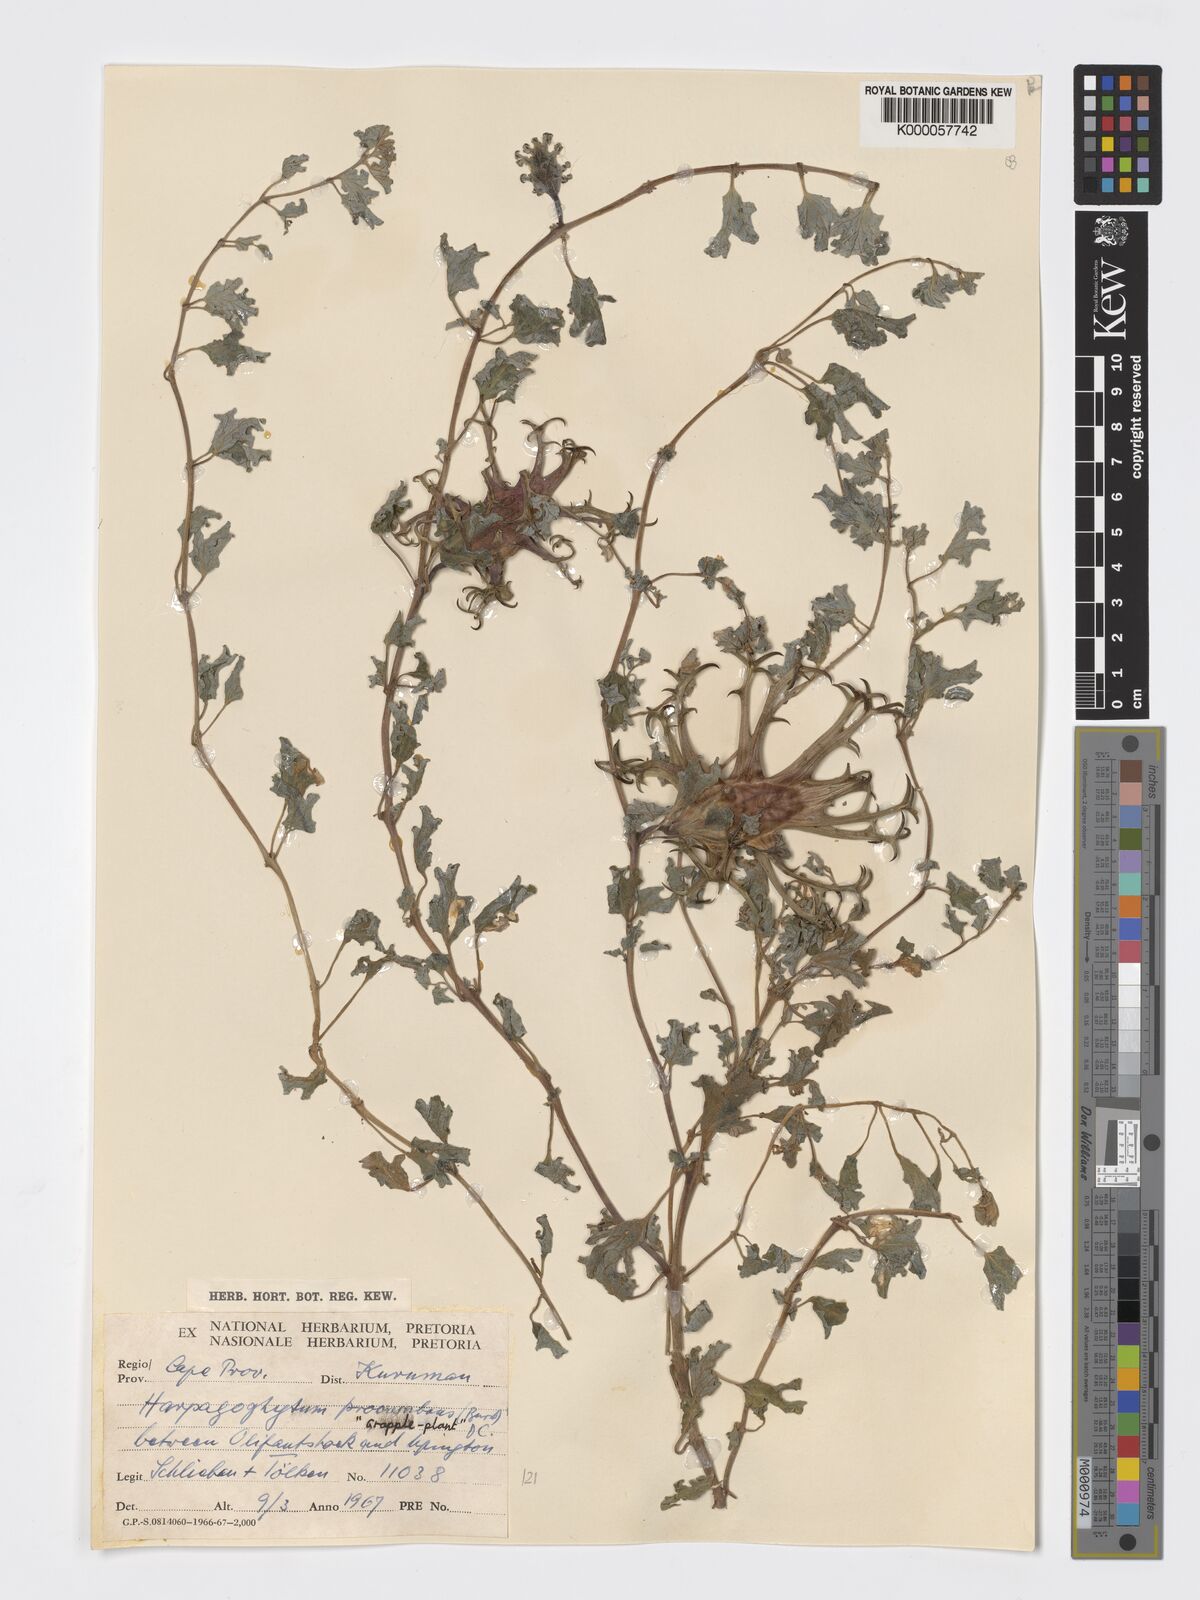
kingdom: Plantae
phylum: Tracheophyta
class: Magnoliopsida
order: Lamiales
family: Pedaliaceae
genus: Harpagophytum
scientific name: Harpagophytum procumbens
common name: Grappleplant
